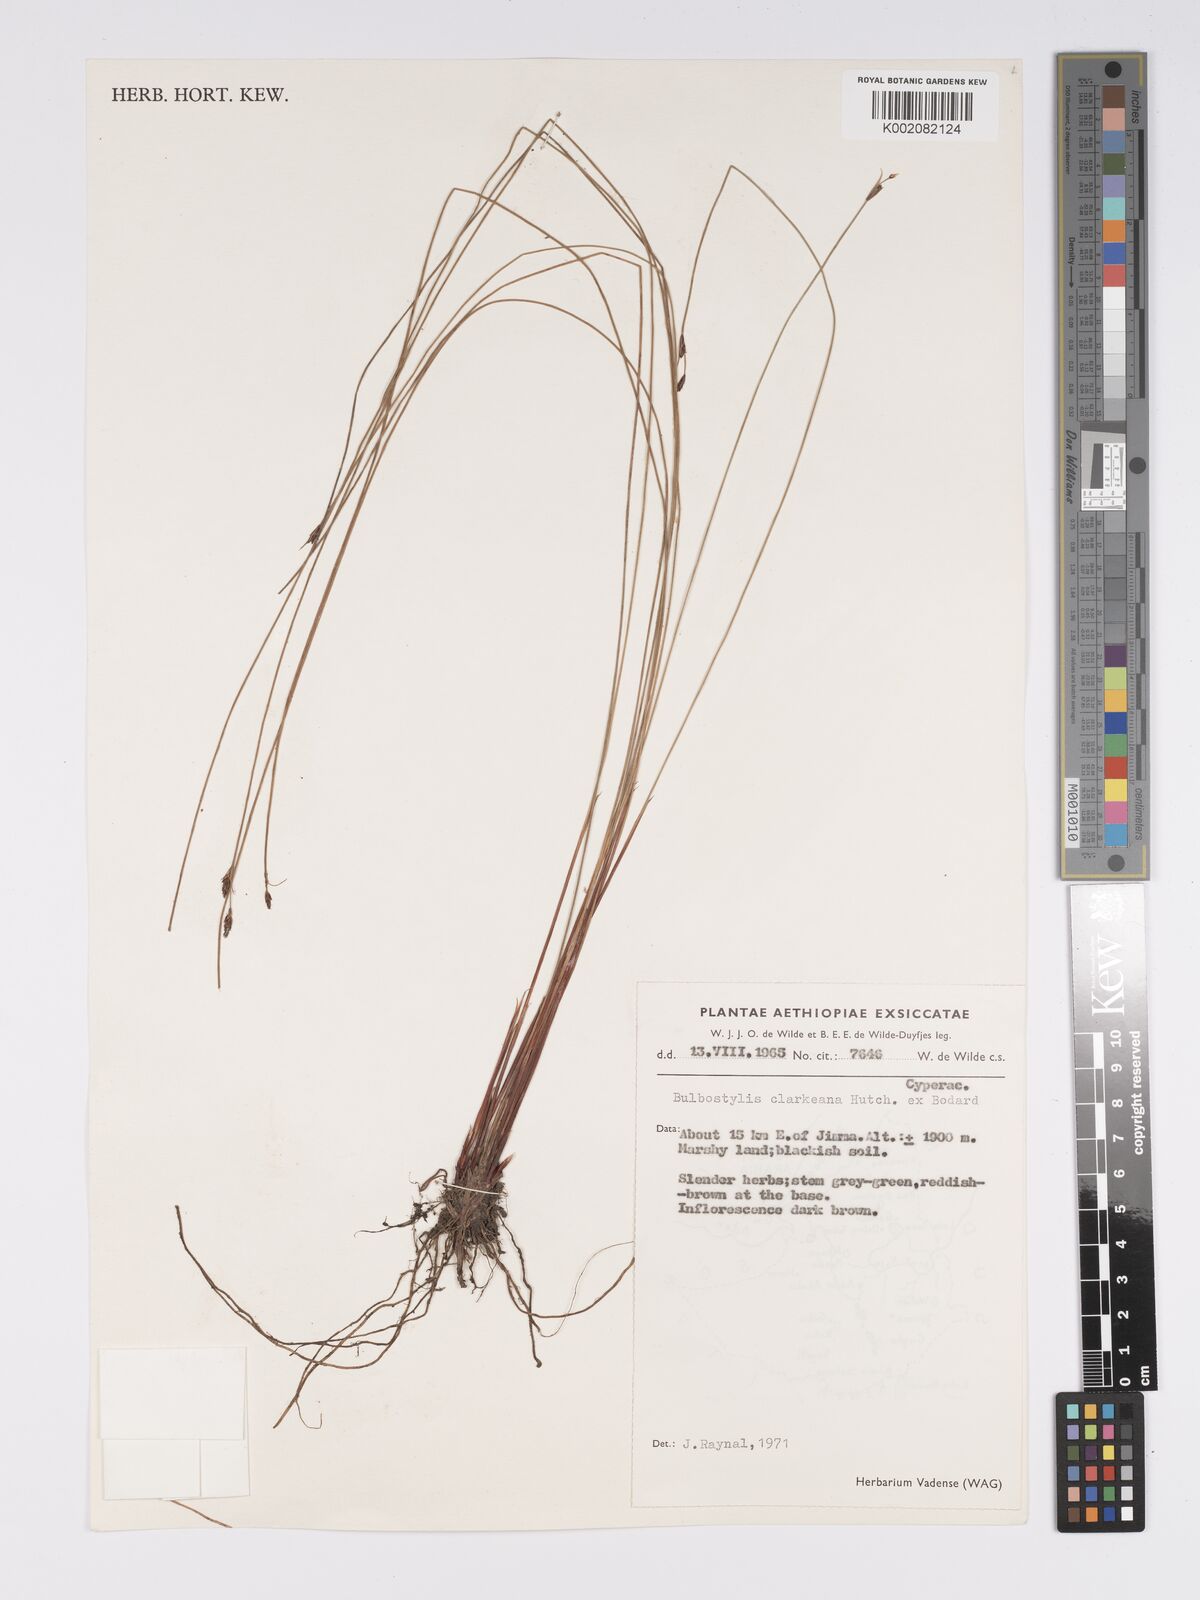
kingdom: Plantae
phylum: Tracheophyta
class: Liliopsida
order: Poales
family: Cyperaceae
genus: Bulbostylis
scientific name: Bulbostylis oritrephes
